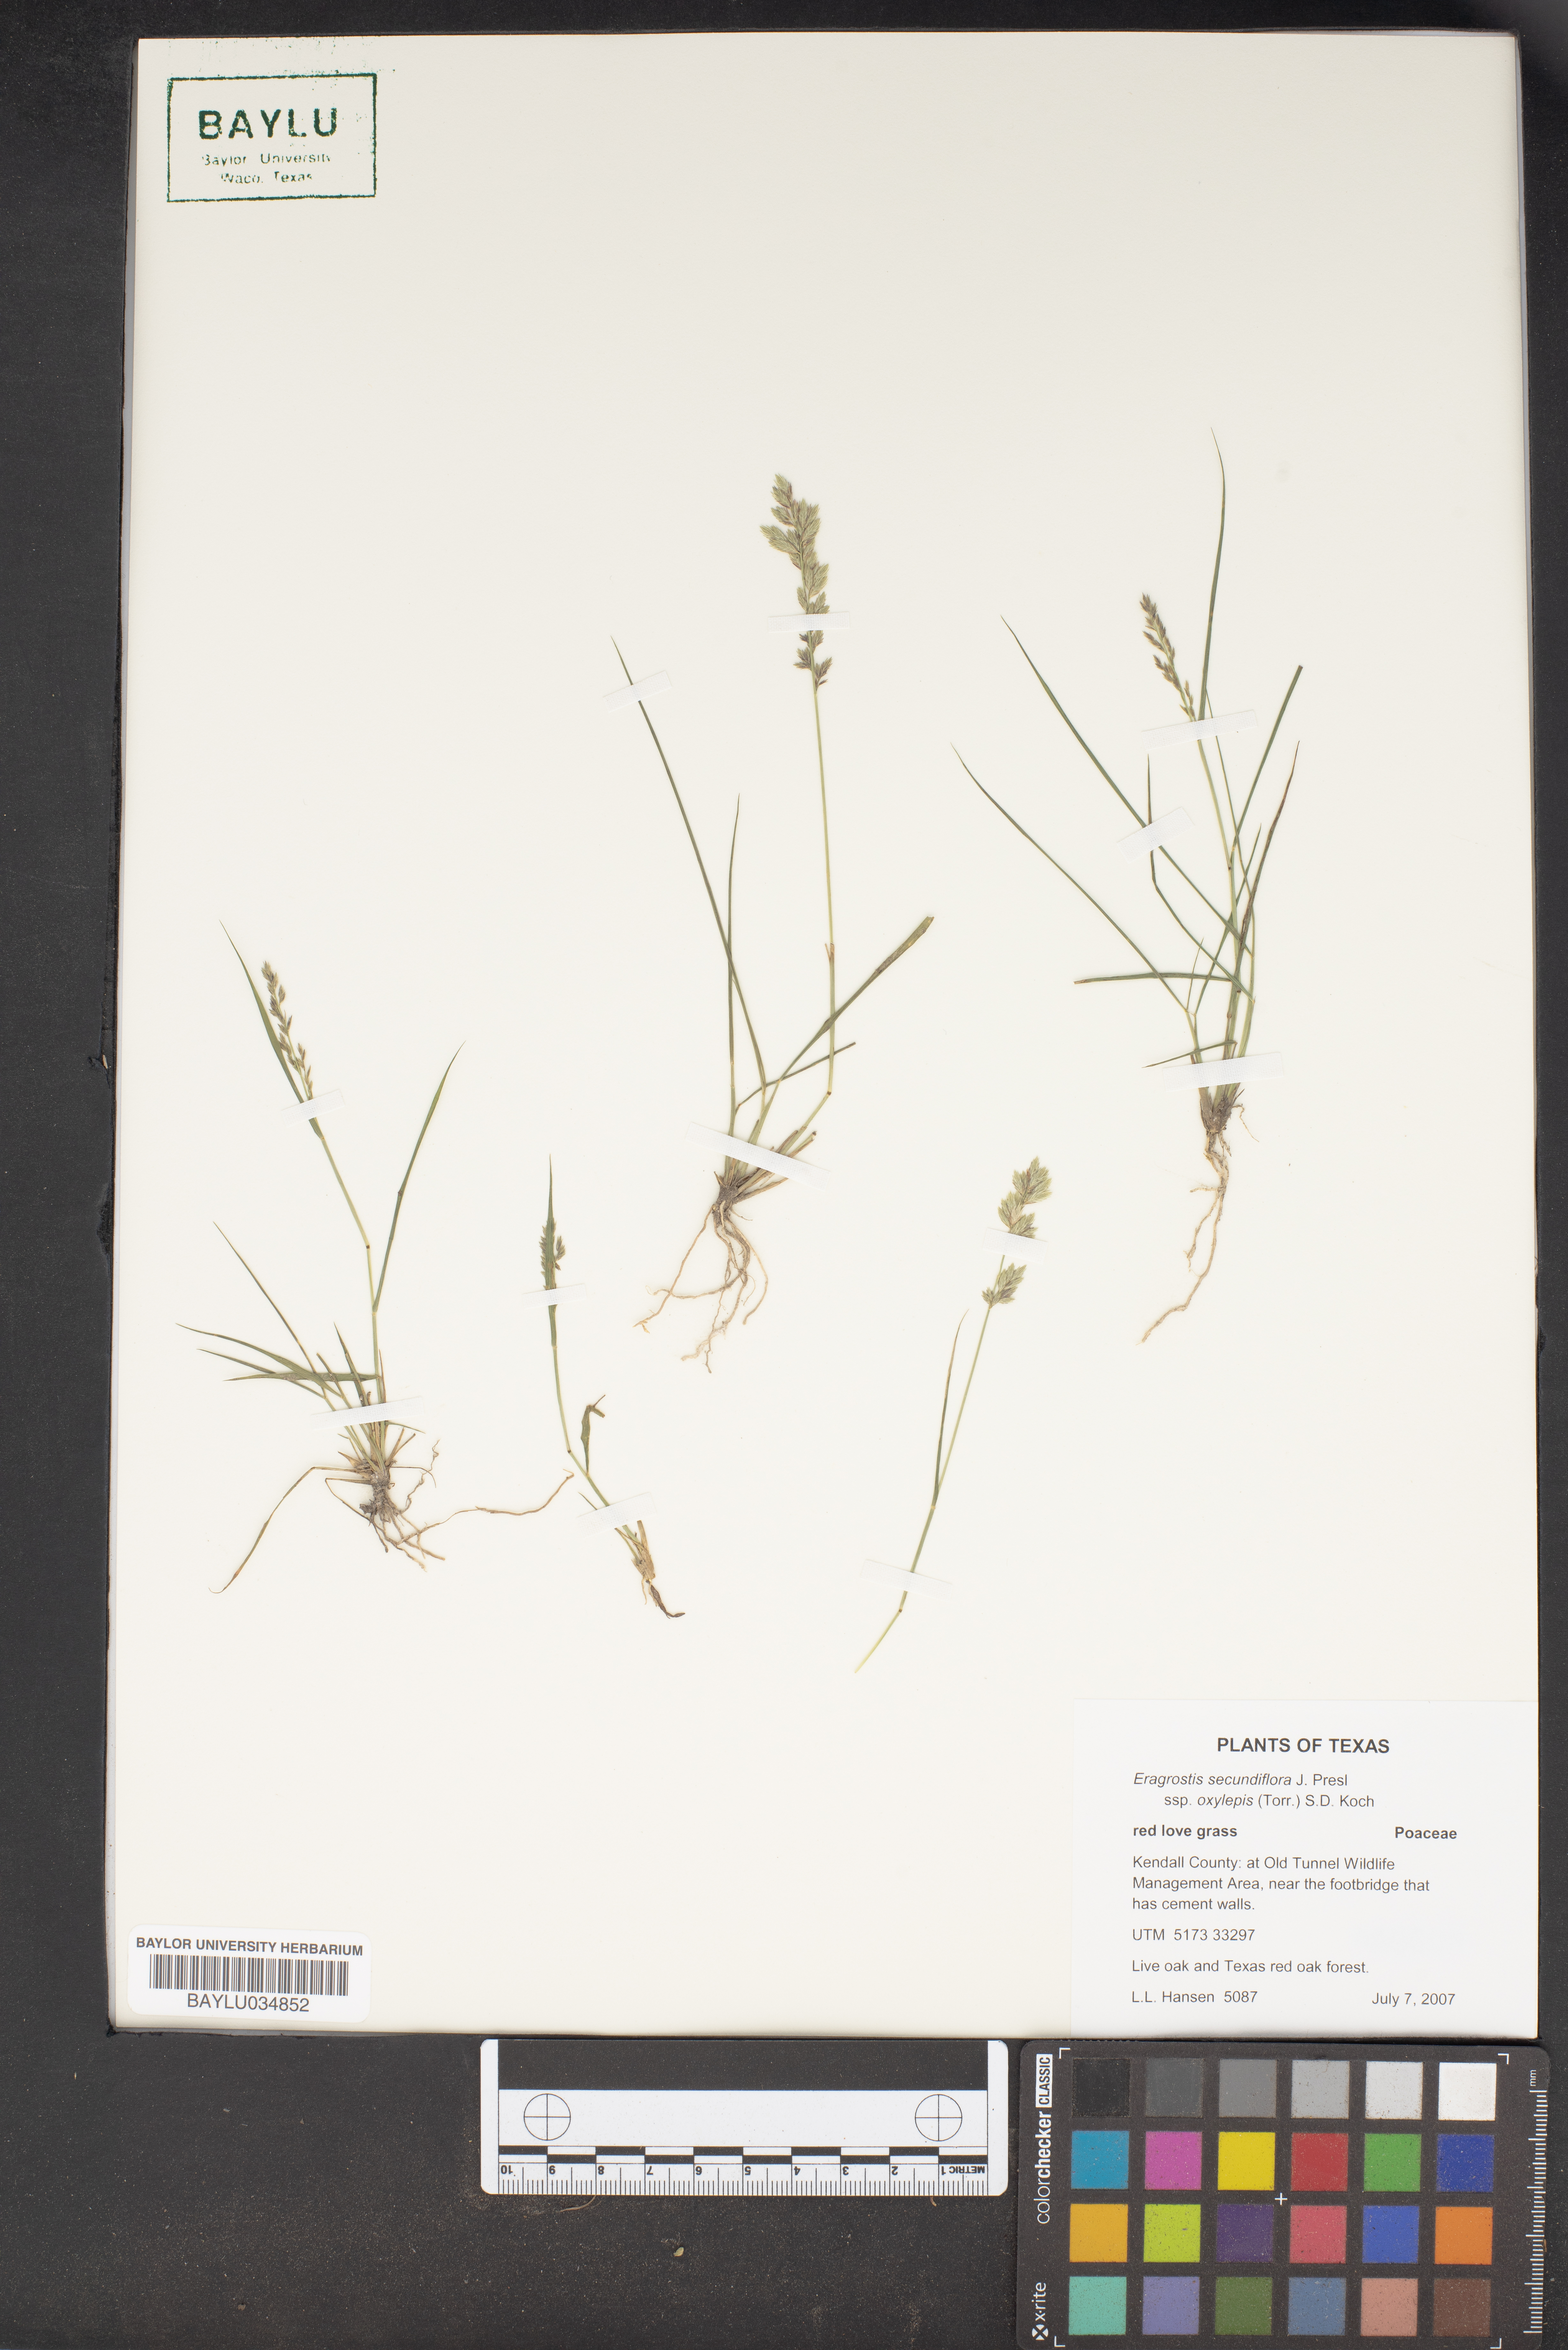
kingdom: Plantae
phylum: Tracheophyta
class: Liliopsida
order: Poales
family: Poaceae
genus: Eragrostis
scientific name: Eragrostis secundiflora
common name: Red love grass
